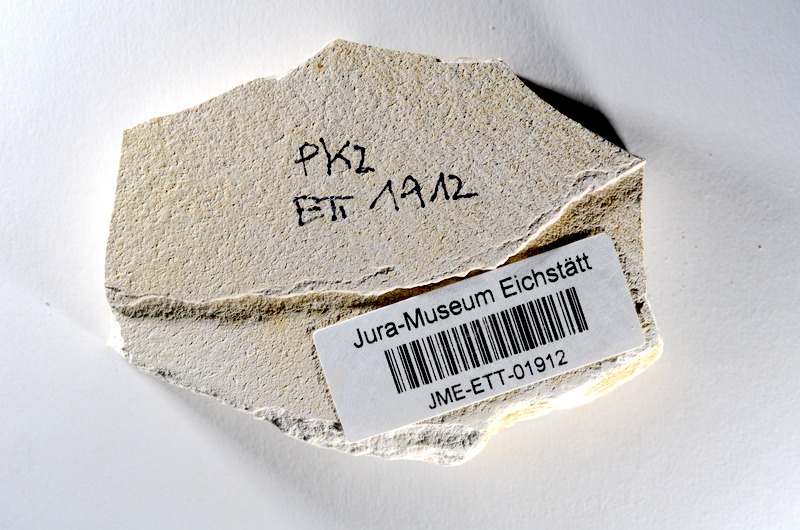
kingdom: Animalia
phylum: Chordata
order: Salmoniformes
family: Orthogonikleithridae
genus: Orthogonikleithrus
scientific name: Orthogonikleithrus hoelli
